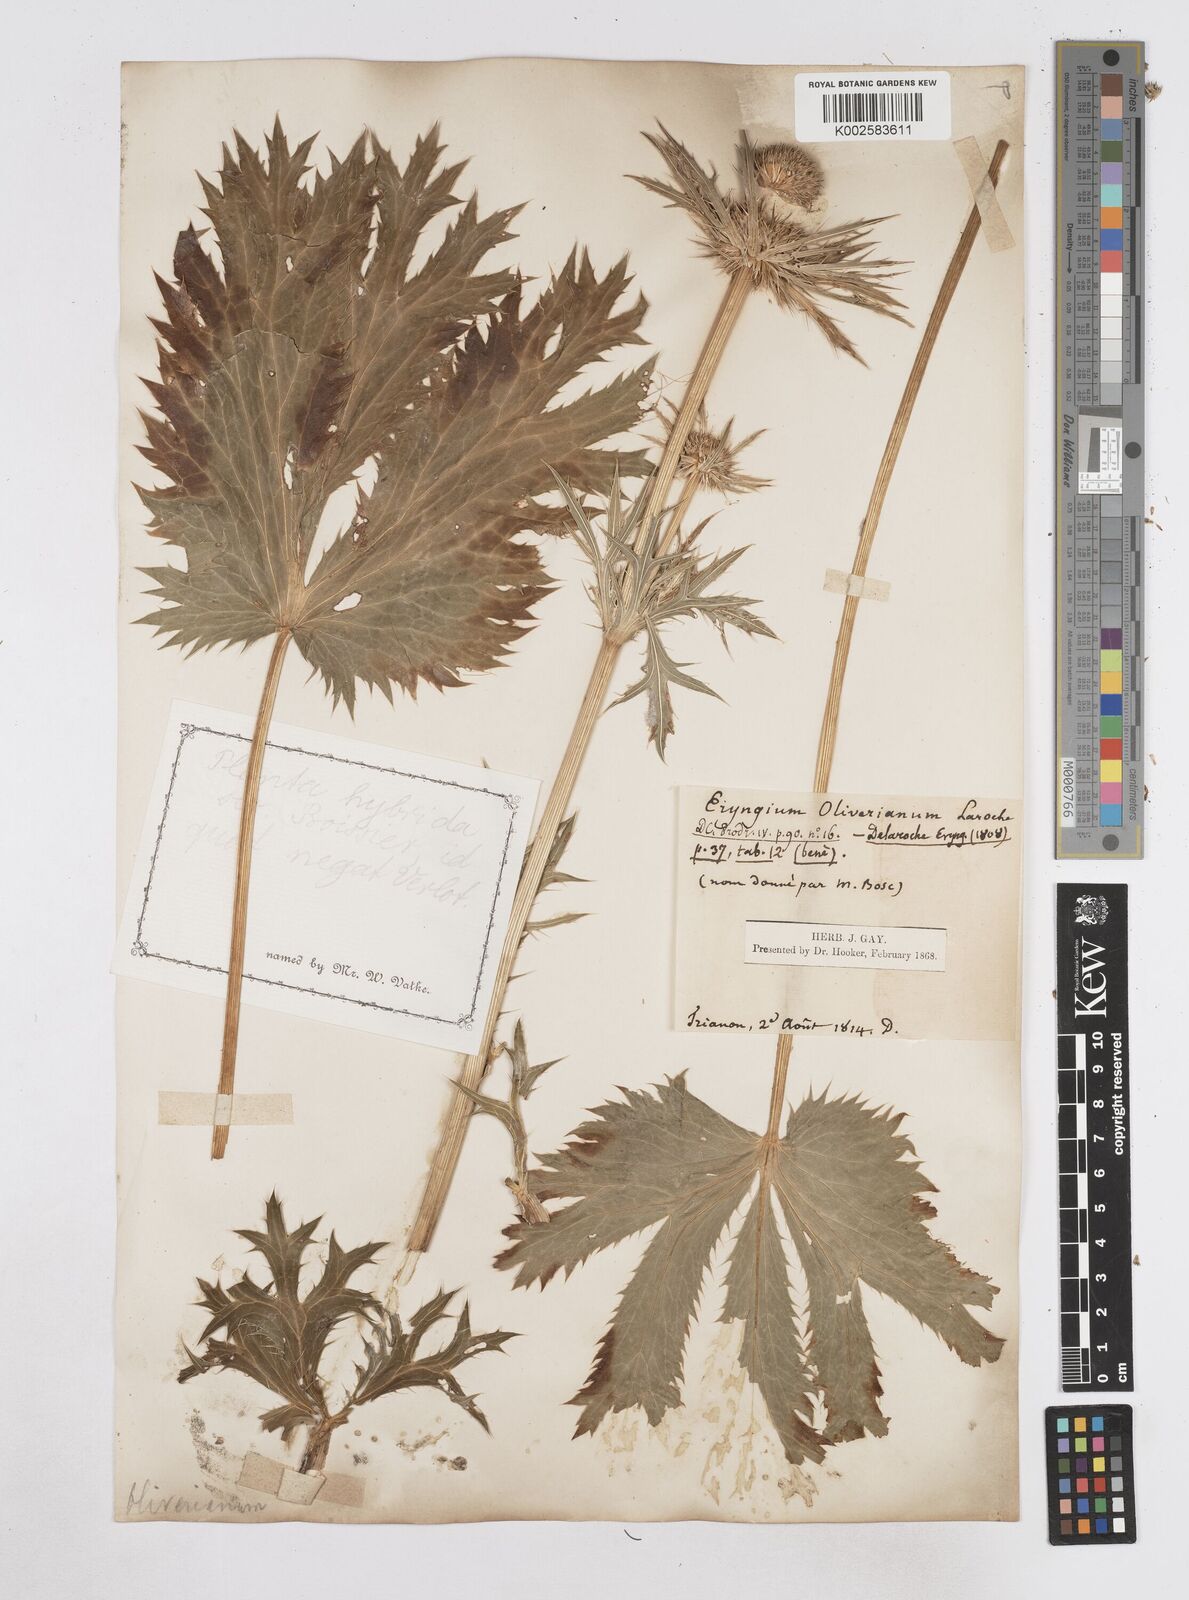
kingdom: Plantae
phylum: Tracheophyta
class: Magnoliopsida
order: Apiales
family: Apiaceae
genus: Eryngium
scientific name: Eryngium oliverianum
